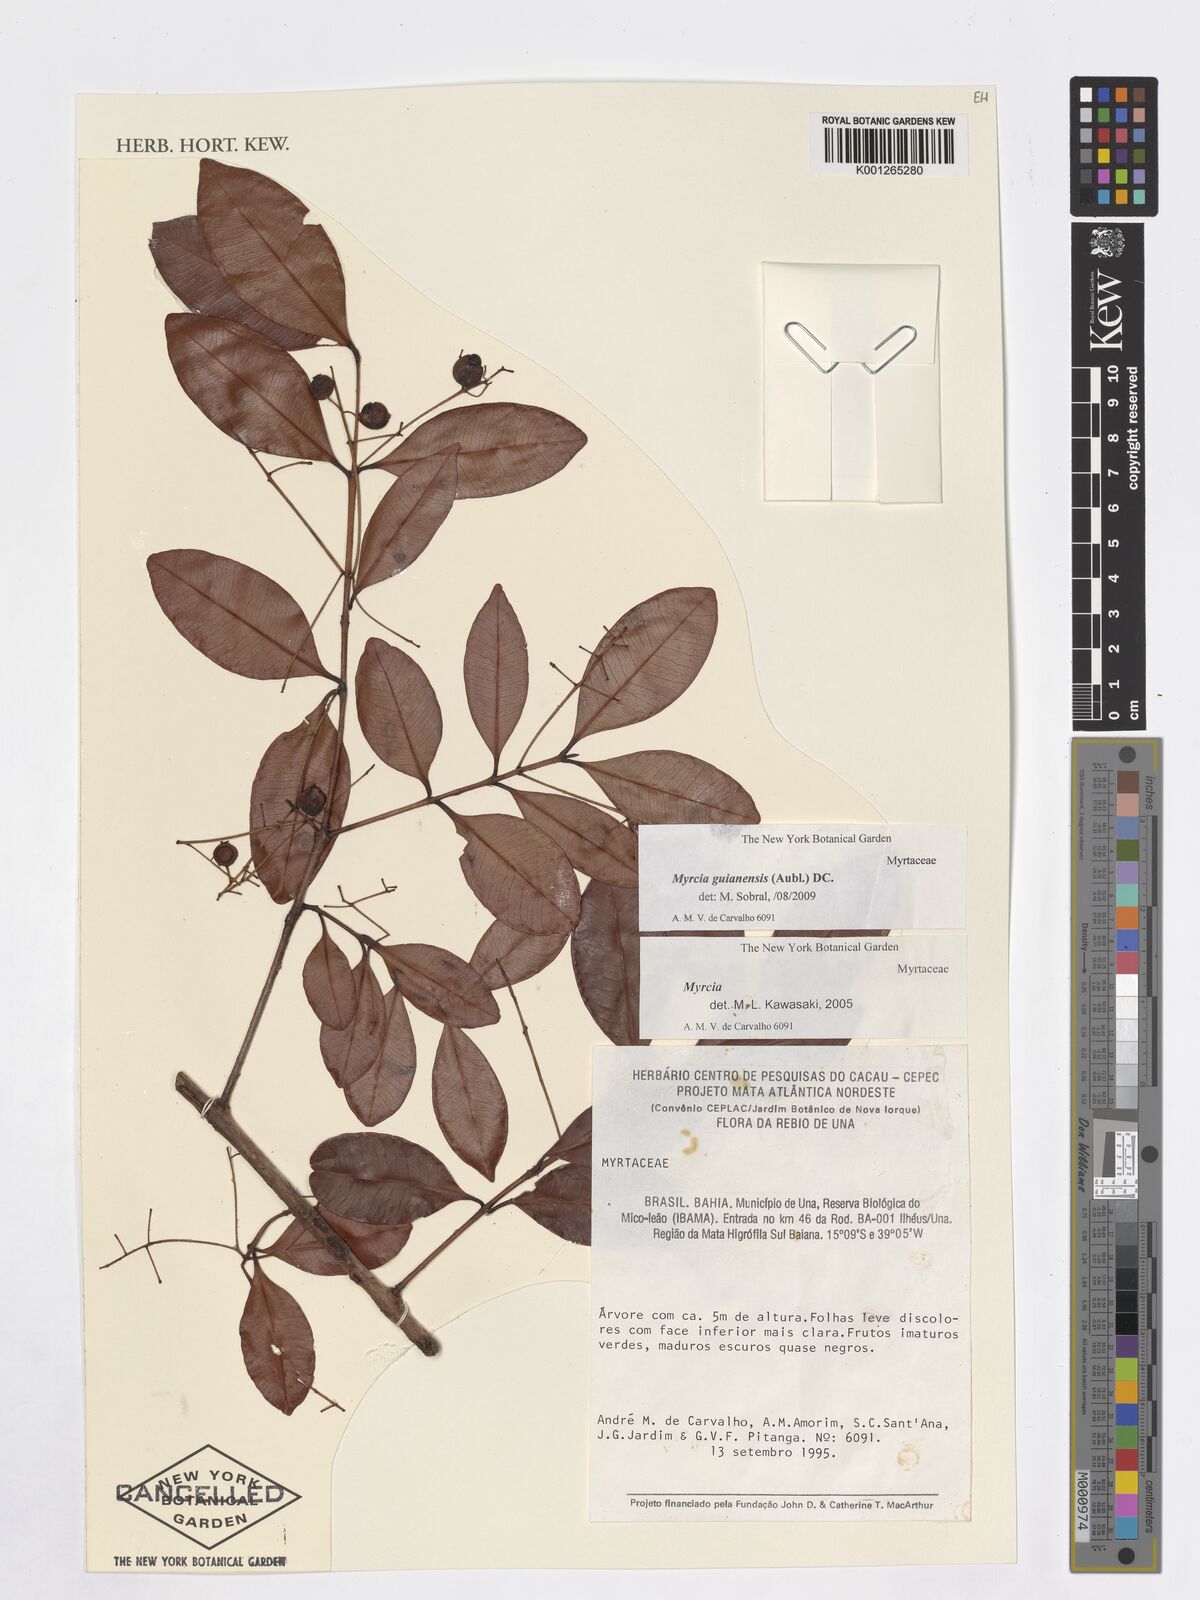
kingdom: Plantae
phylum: Tracheophyta
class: Magnoliopsida
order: Myrtales
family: Myrtaceae
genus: Myrcia
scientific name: Myrcia guianensis
